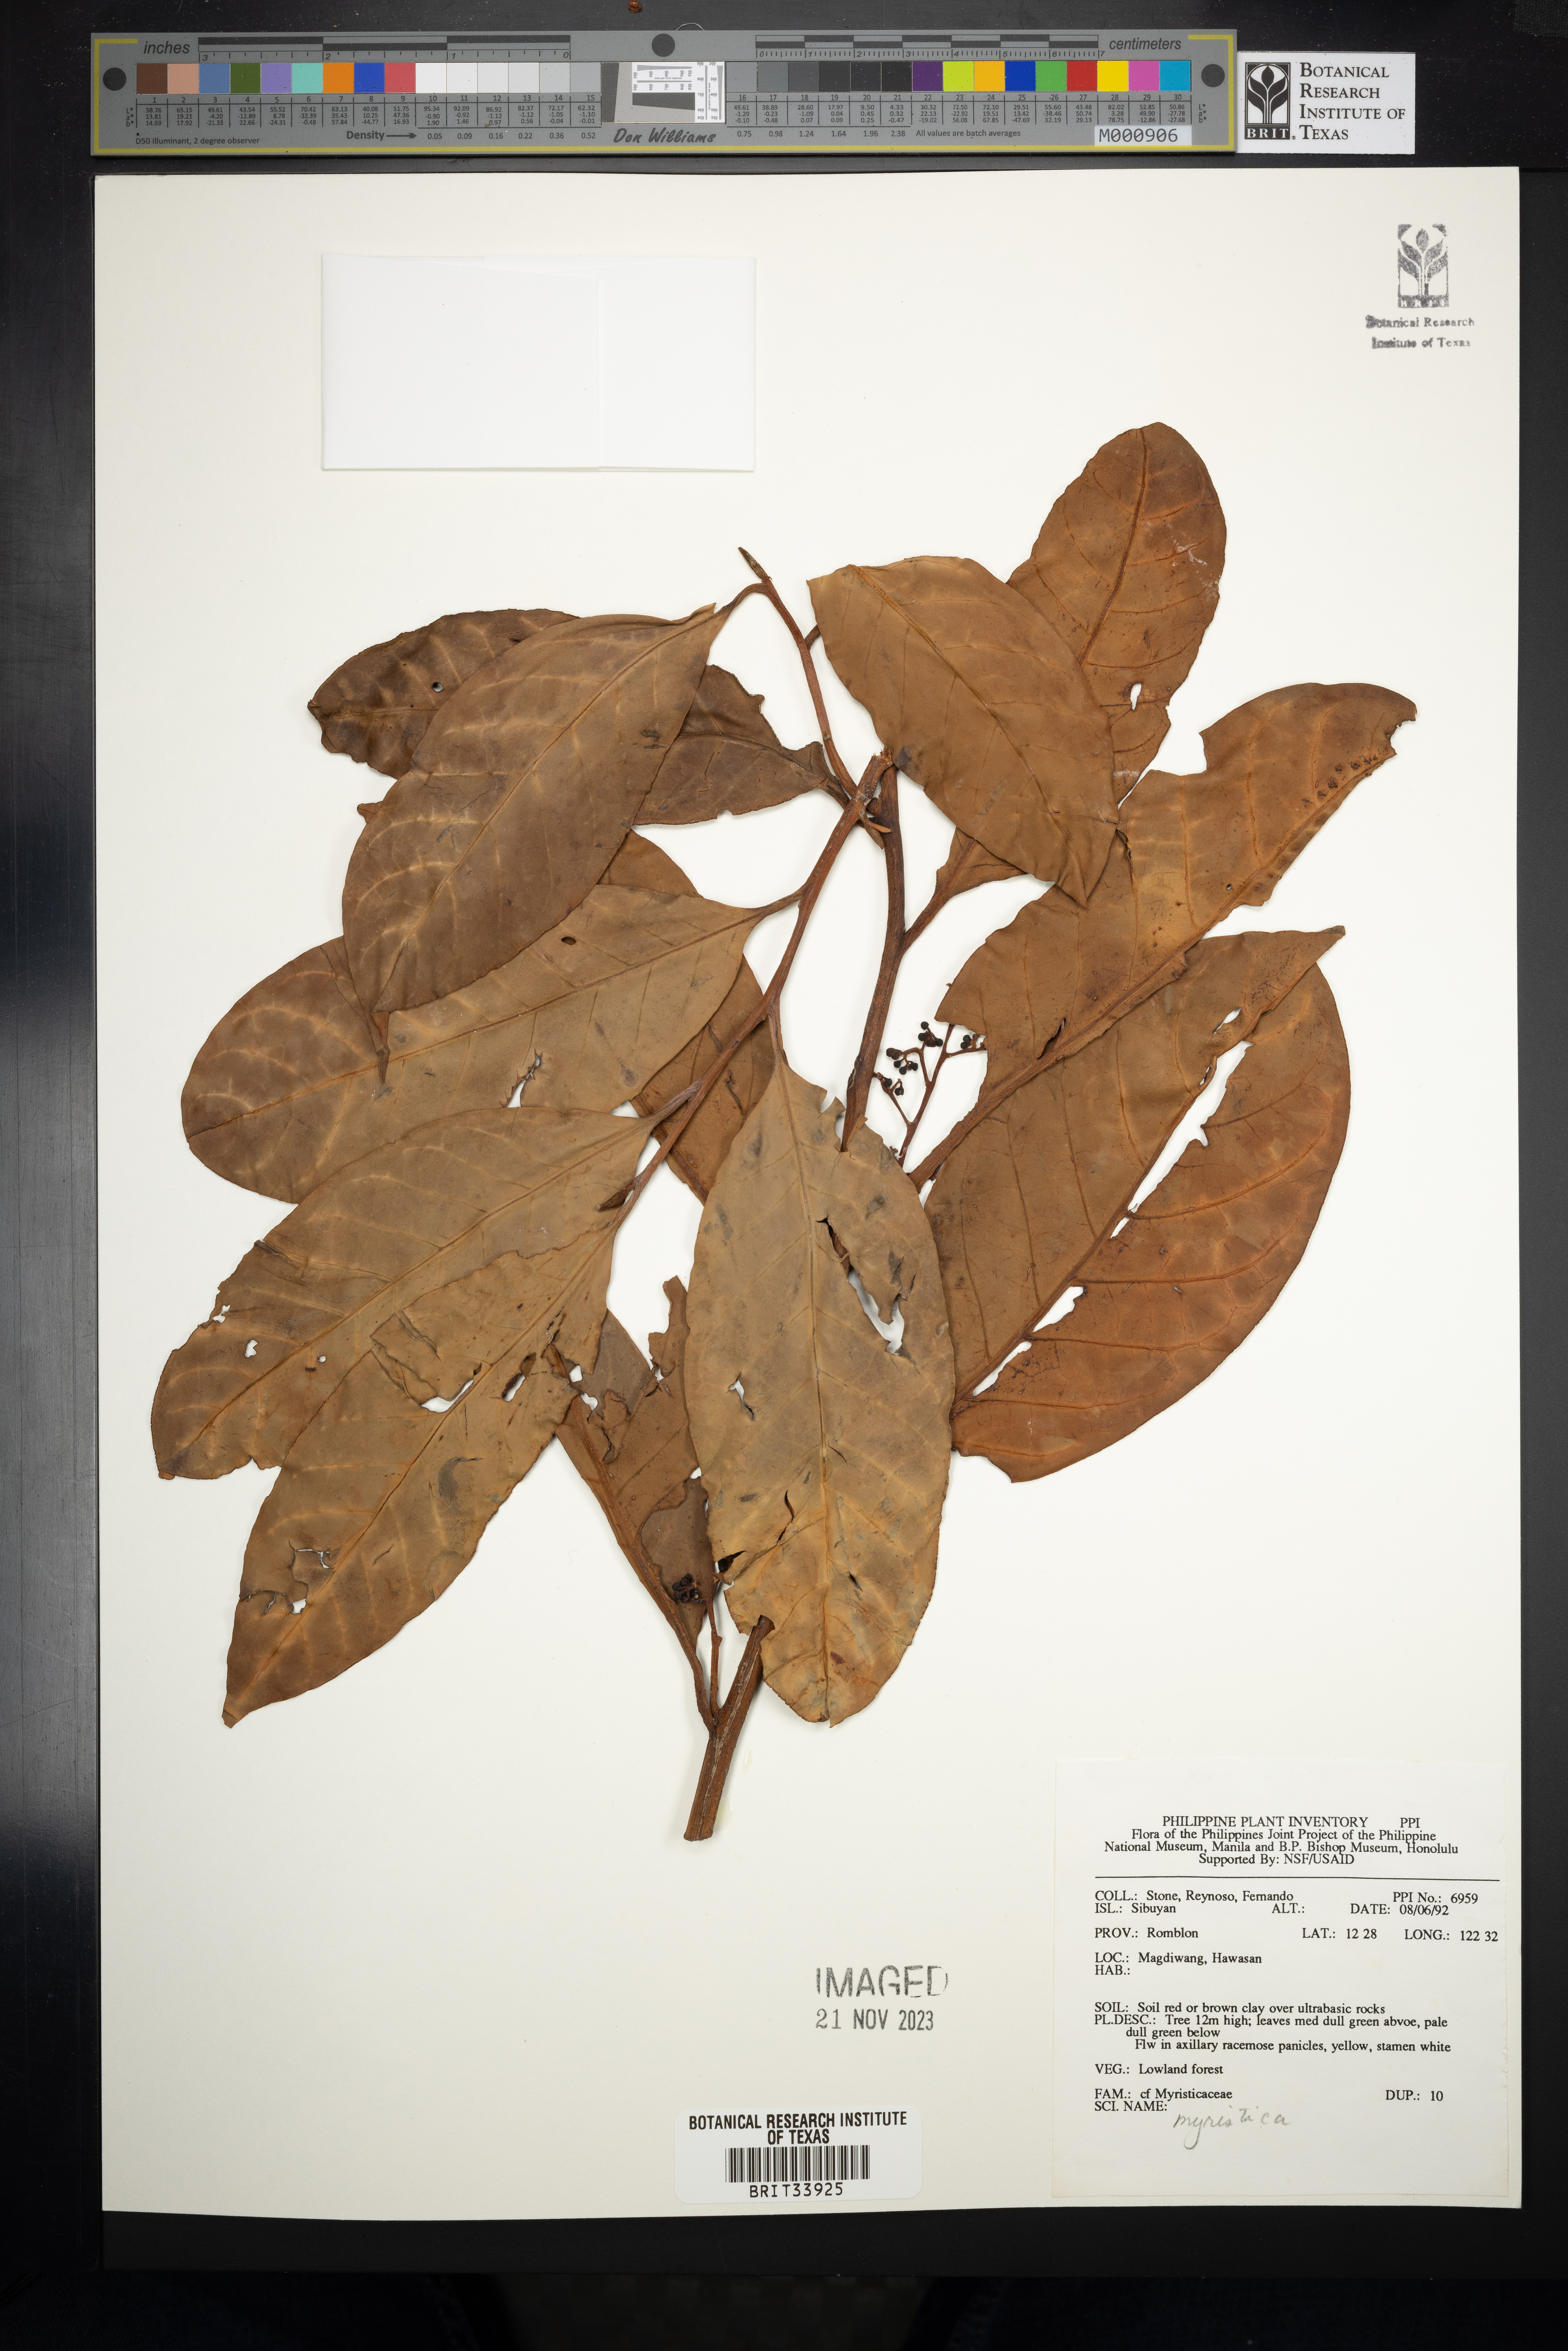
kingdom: Plantae
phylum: Tracheophyta
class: Magnoliopsida
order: Magnoliales
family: Myristicaceae
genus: Myristica
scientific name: Myristica
